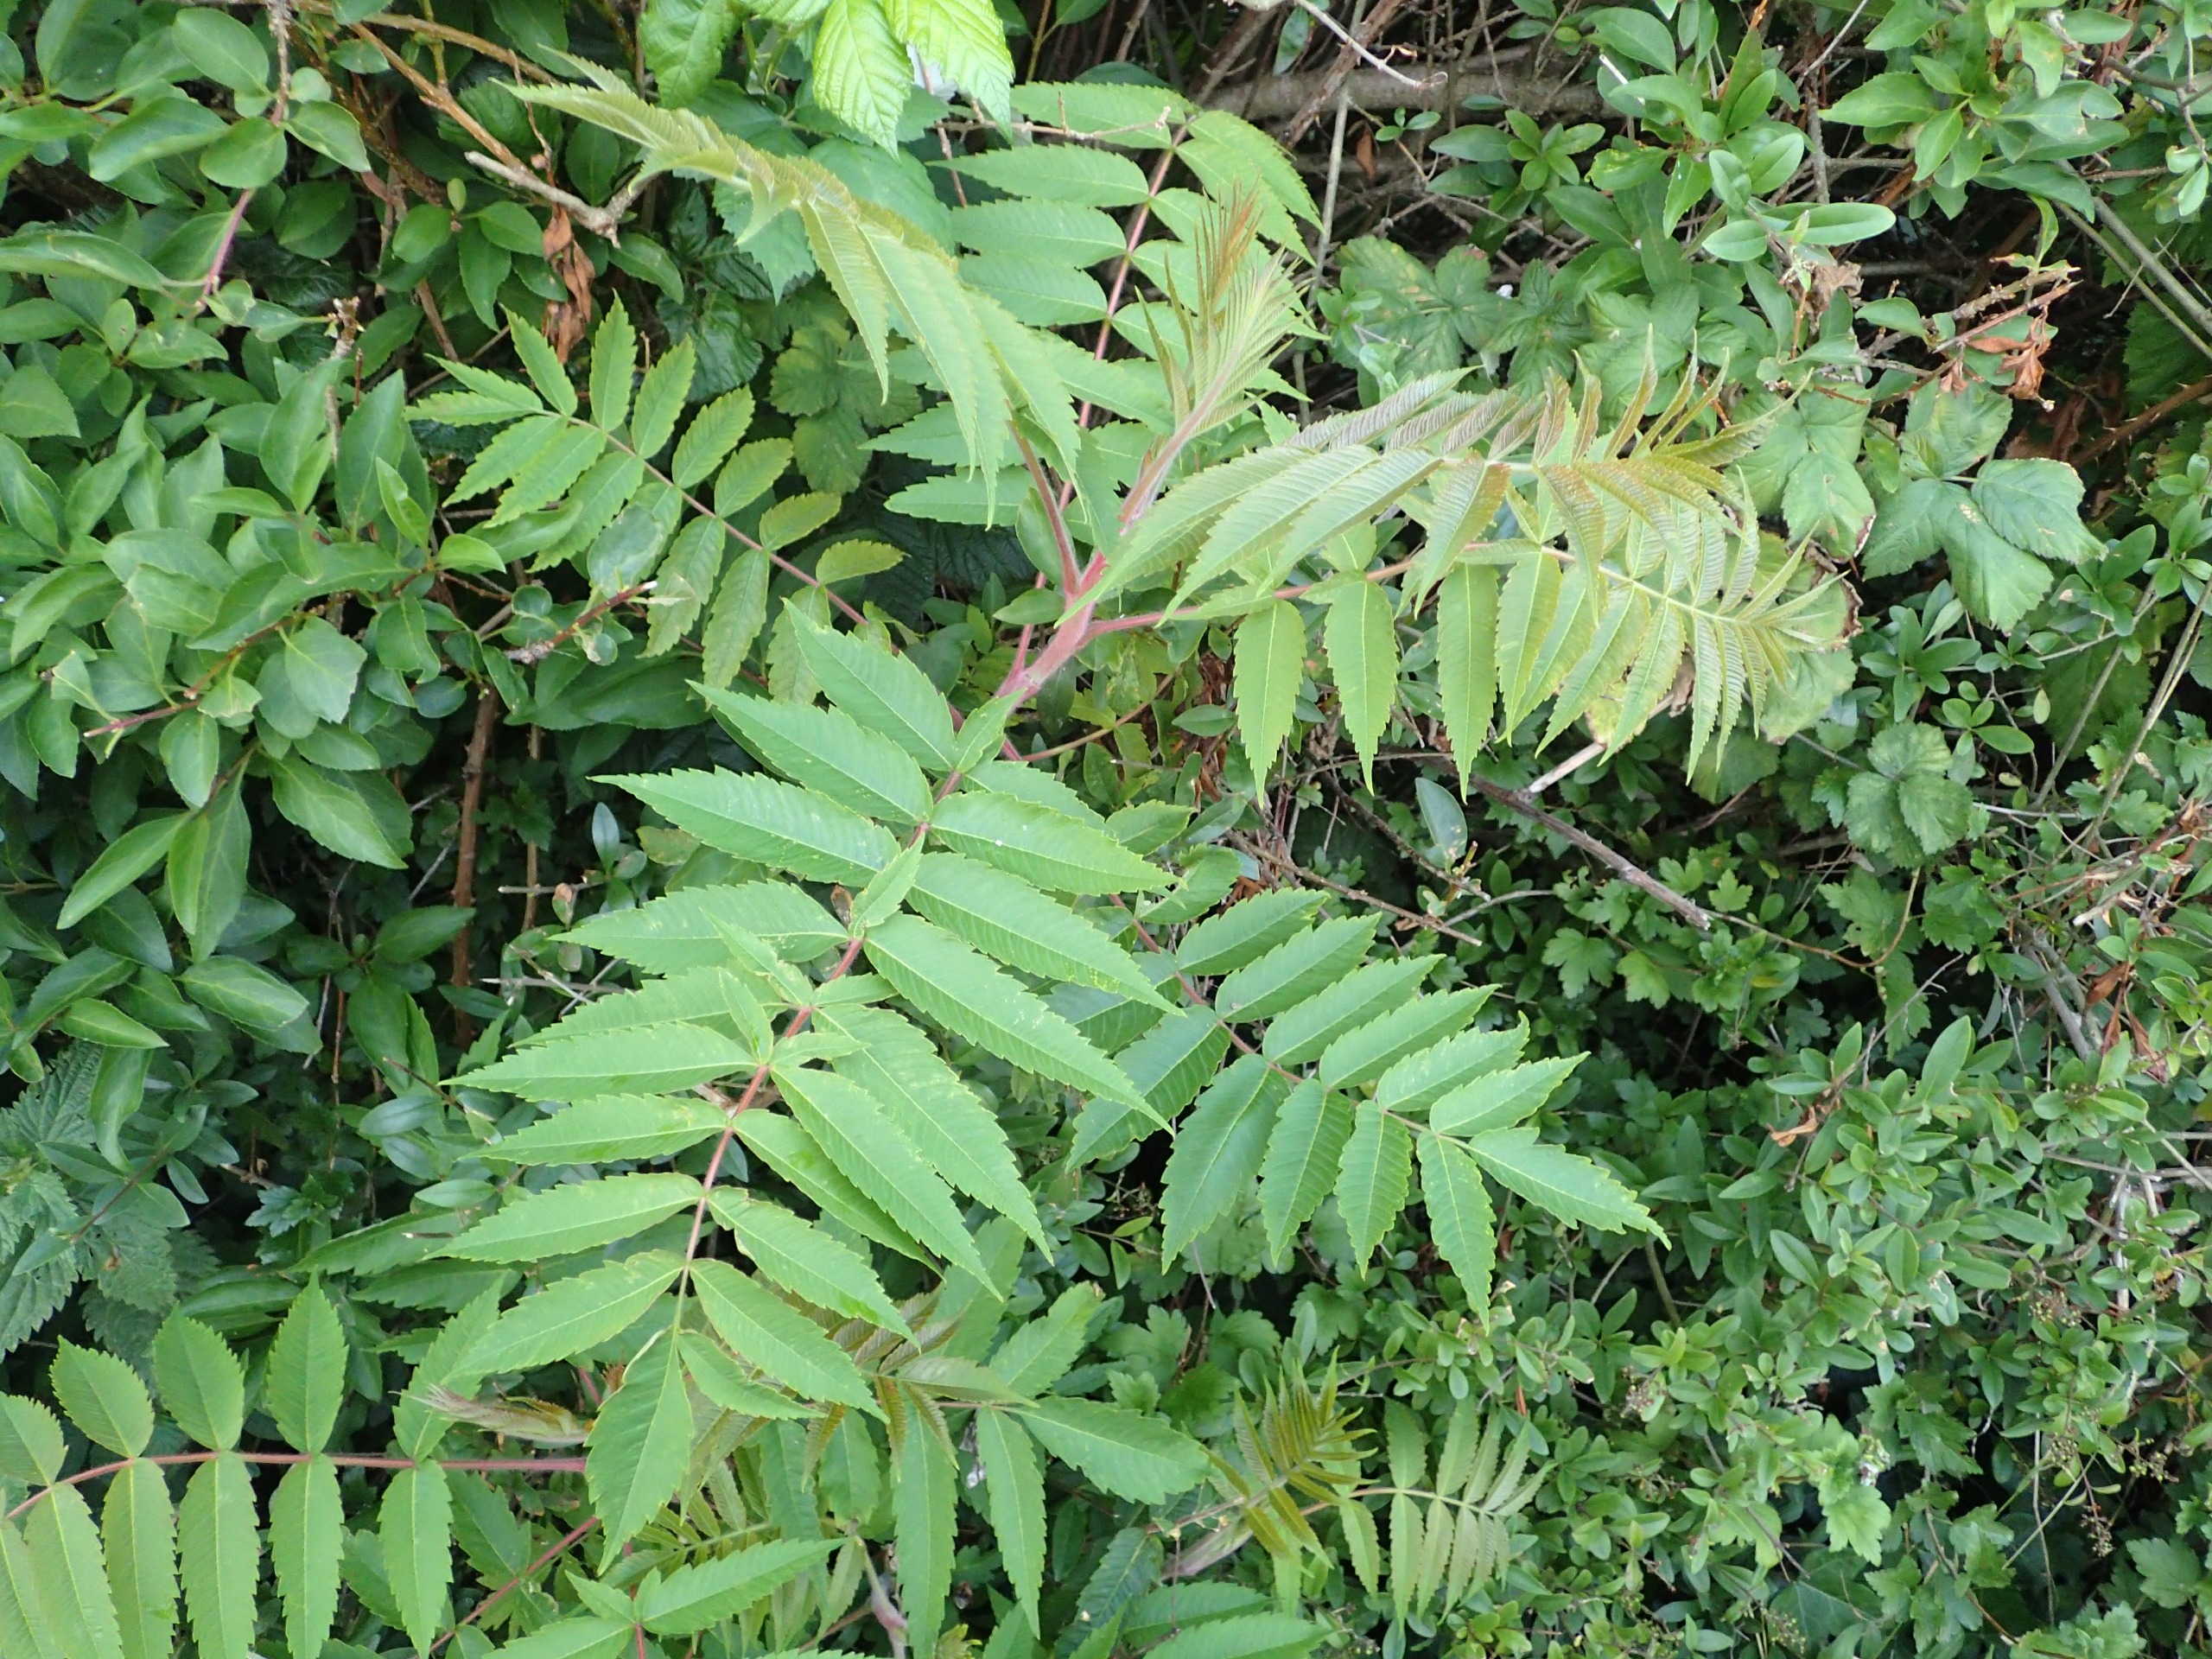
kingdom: Plantae
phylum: Tracheophyta
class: Magnoliopsida
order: Sapindales
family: Anacardiaceae
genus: Rhus
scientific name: Rhus typhina
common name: Hjortetaktræ
